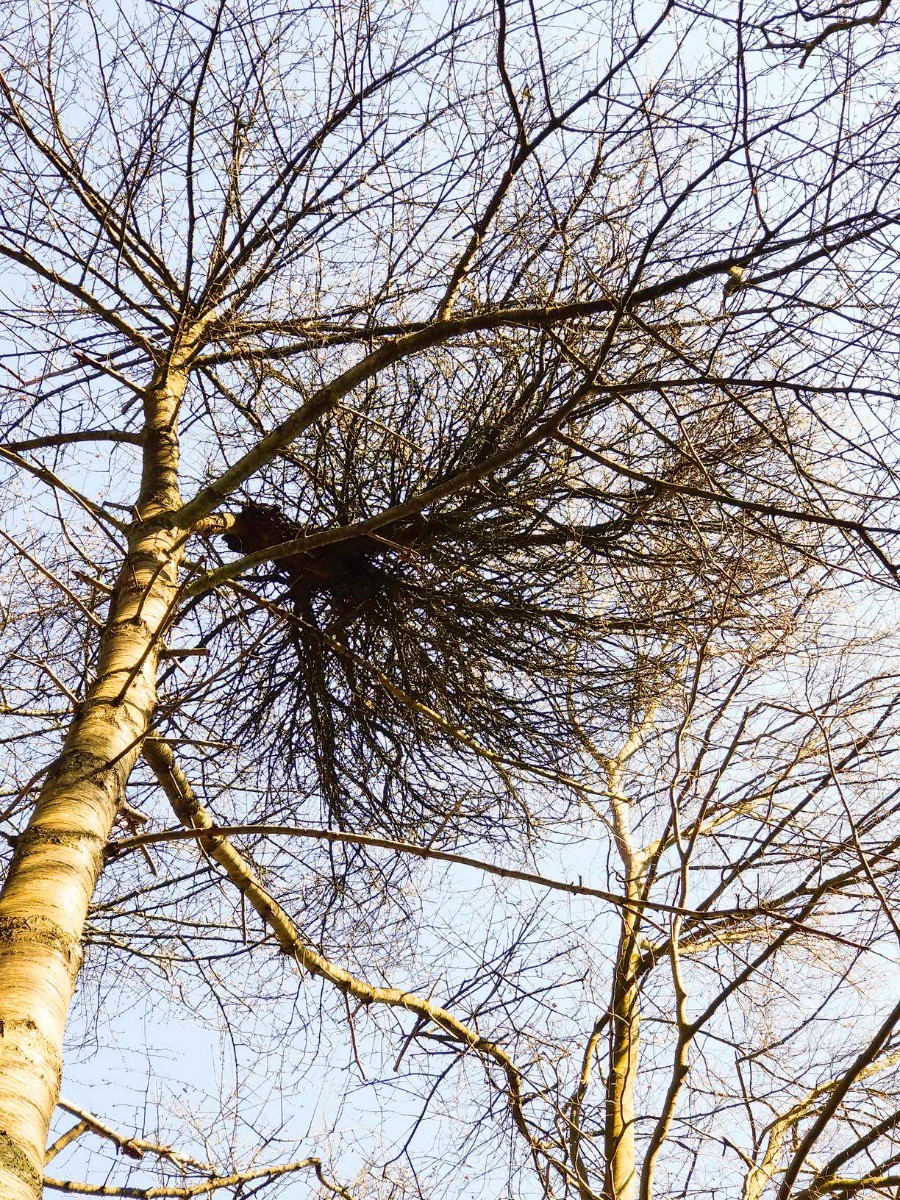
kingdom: Fungi
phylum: Ascomycota
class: Taphrinomycetes
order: Taphrinales
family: Taphrinaceae
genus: Taphrina
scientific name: Taphrina wiesneri
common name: Cherry leaf curl
